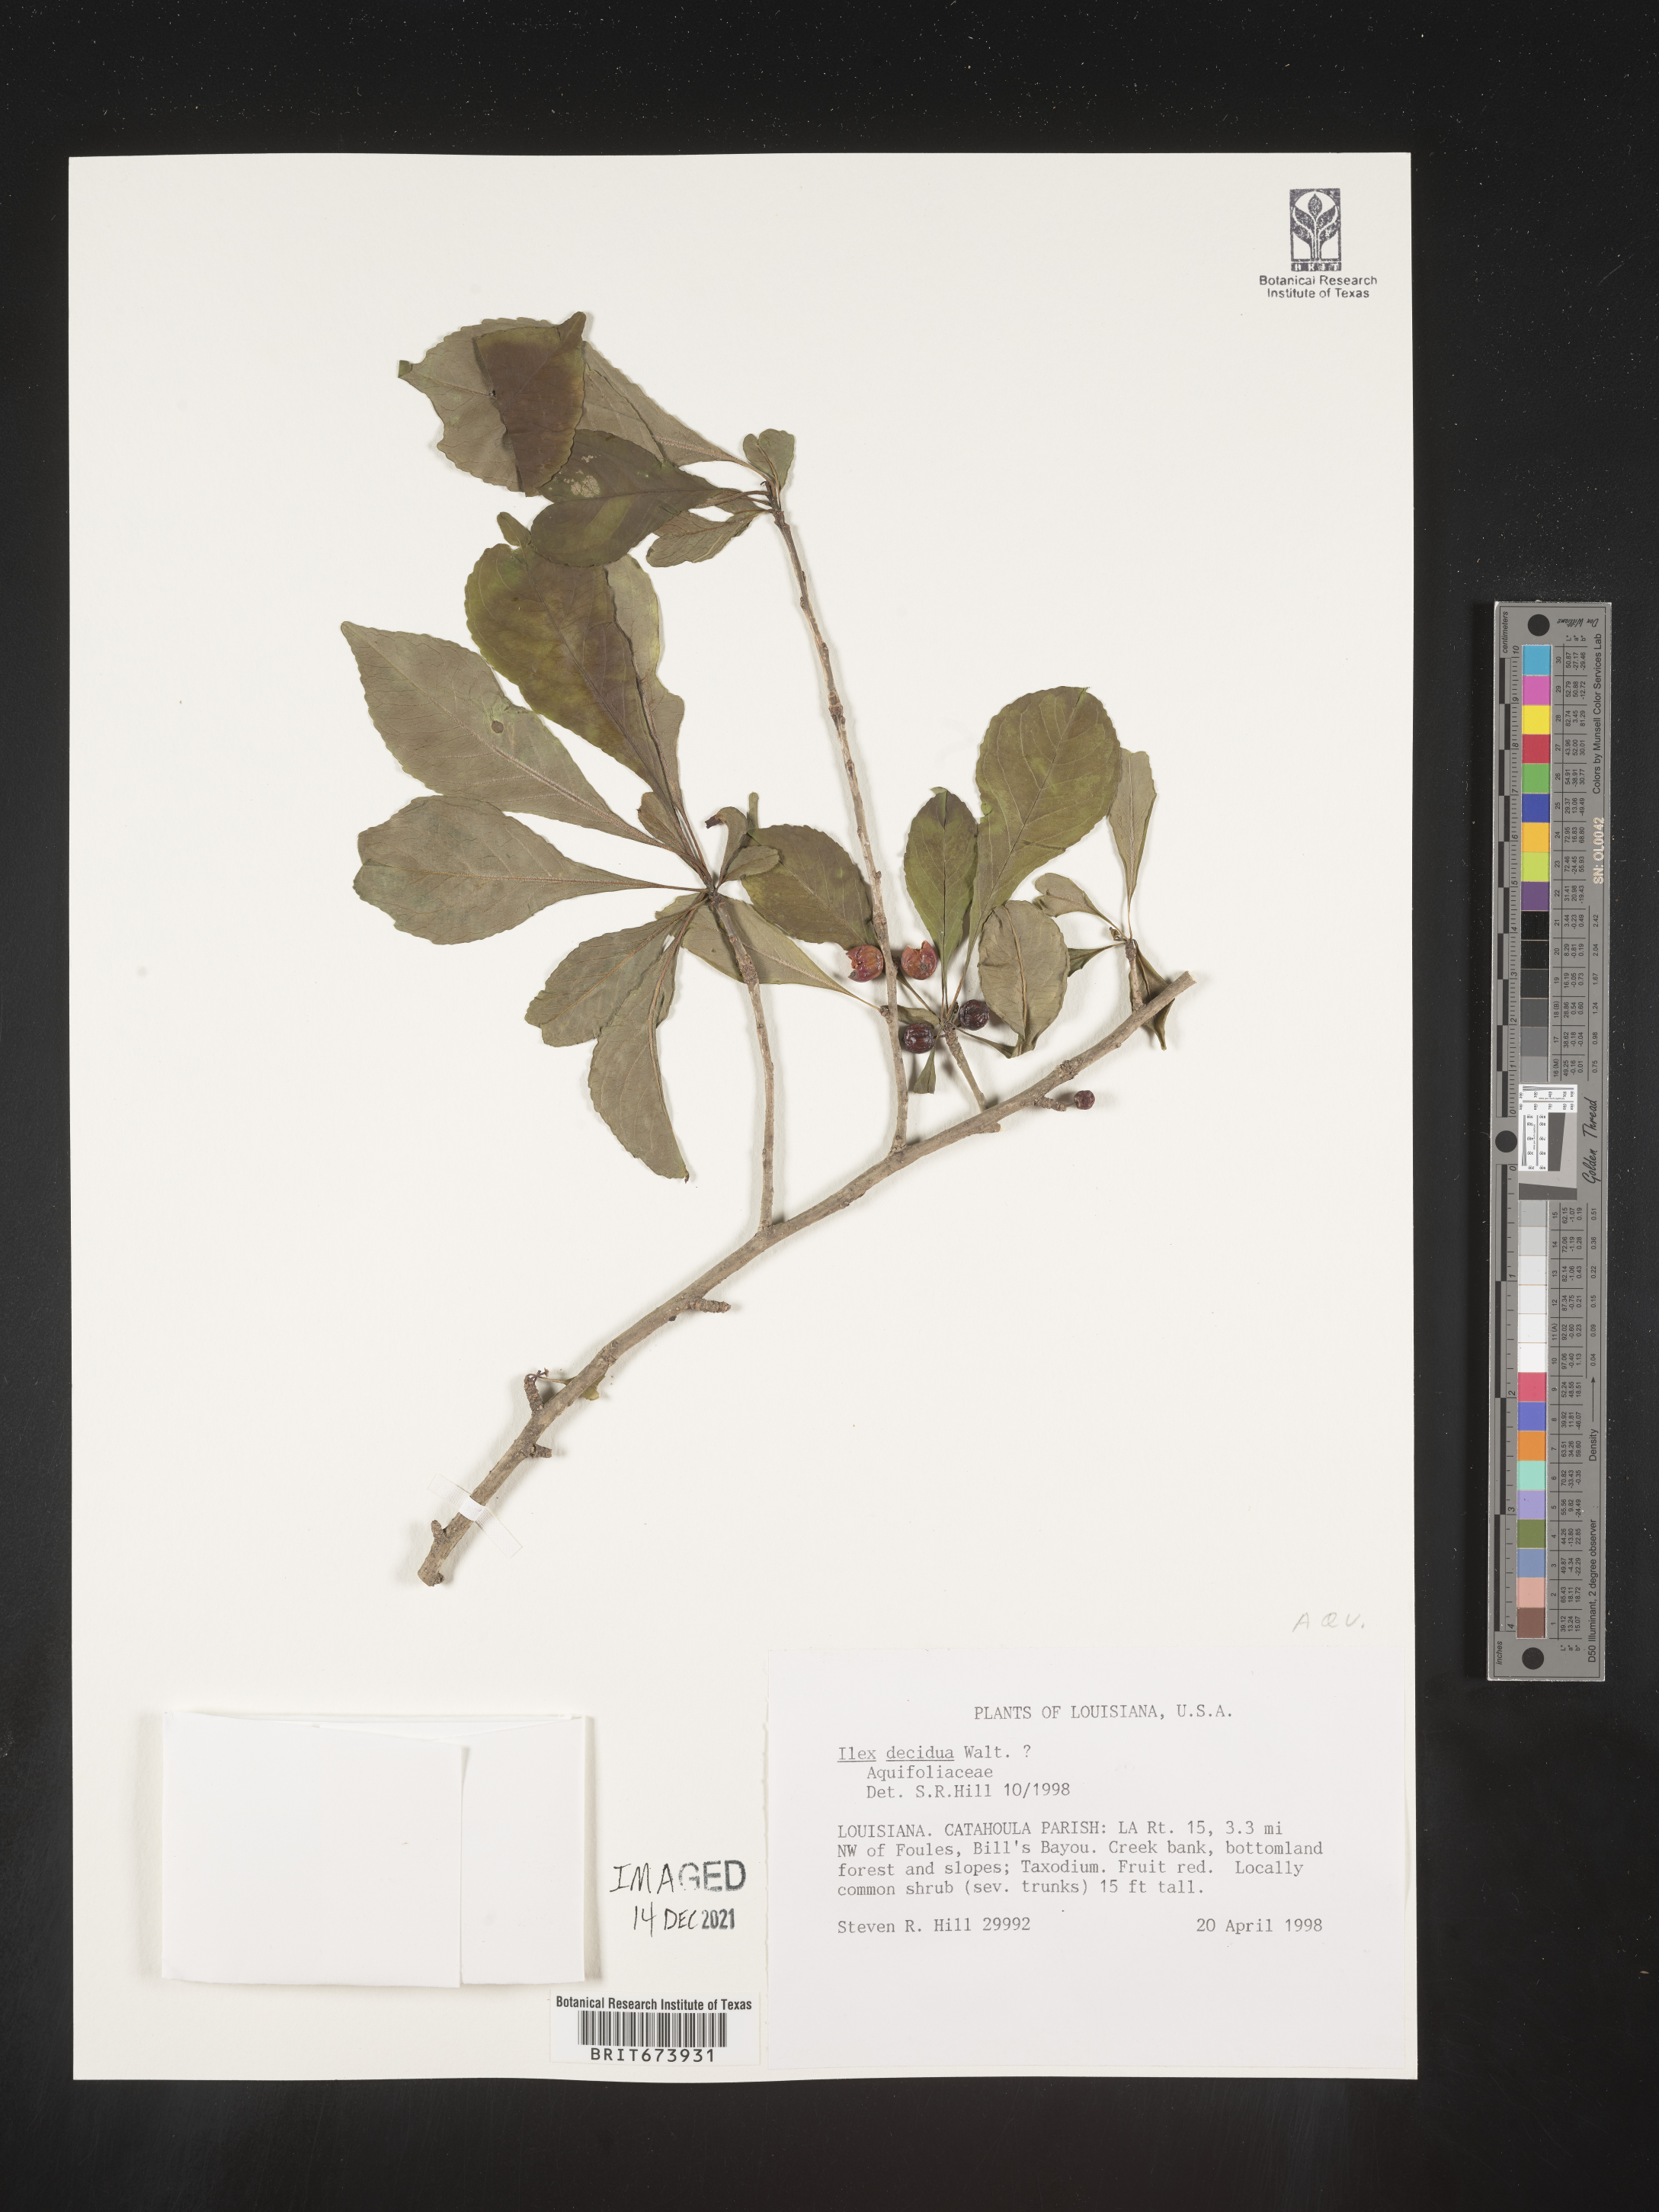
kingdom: Plantae
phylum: Tracheophyta
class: Magnoliopsida
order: Aquifoliales
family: Aquifoliaceae
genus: Ilex
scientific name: Ilex decidua
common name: Possum-haw
